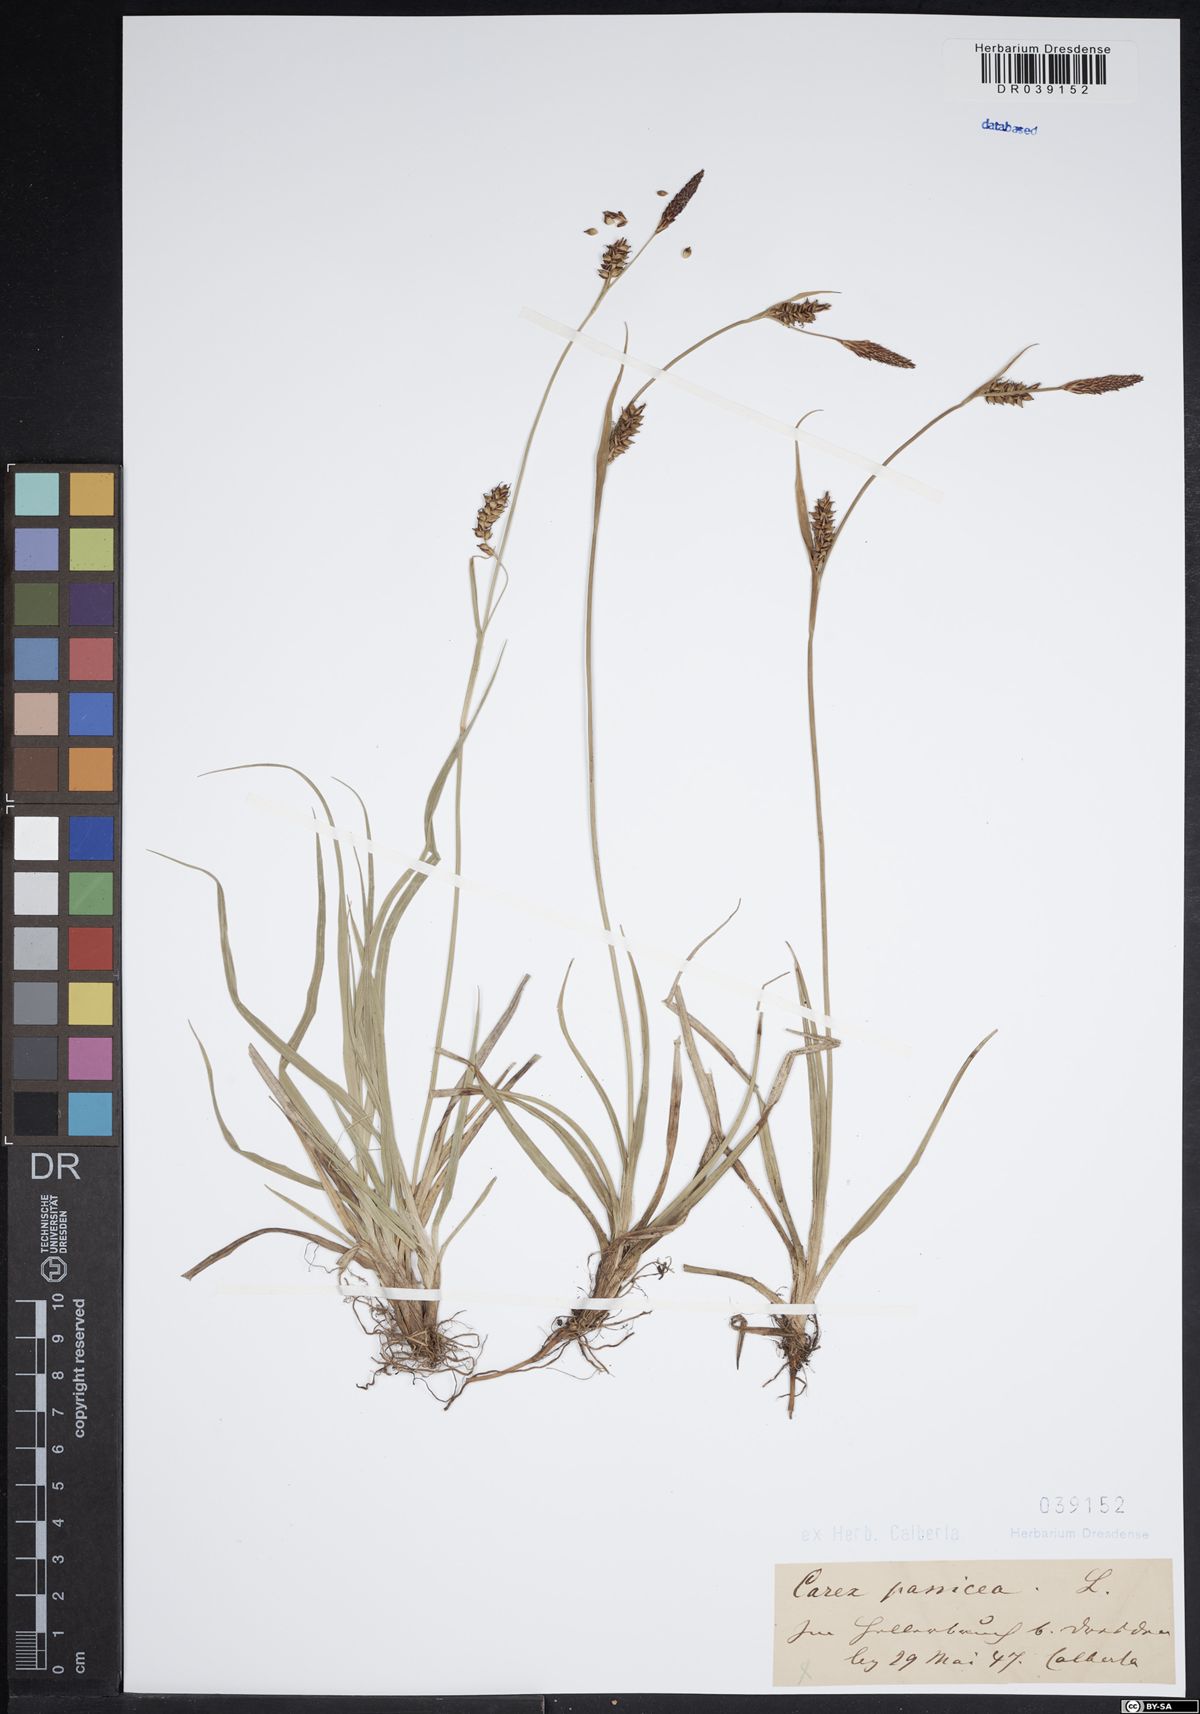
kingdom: Plantae
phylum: Tracheophyta
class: Liliopsida
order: Poales
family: Cyperaceae
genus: Carex
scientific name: Carex panicea
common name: Carnation sedge
